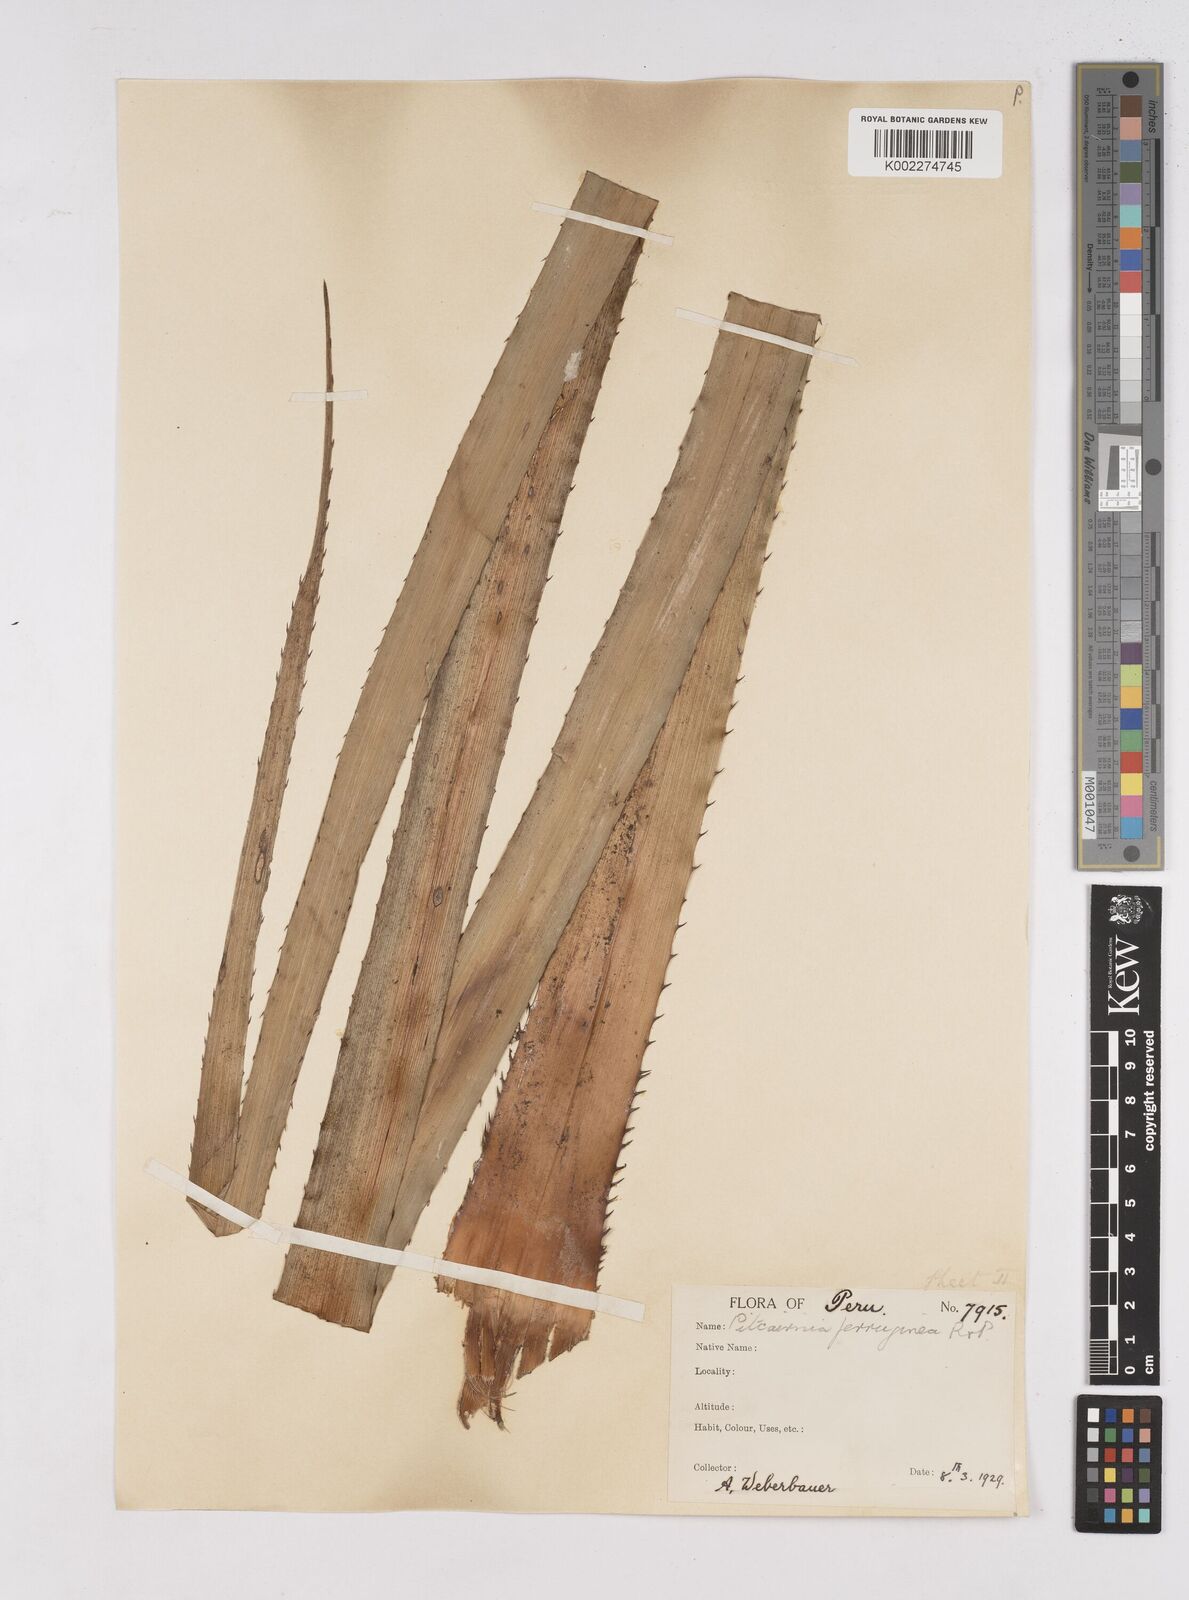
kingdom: Plantae
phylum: Tracheophyta
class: Liliopsida
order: Poales
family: Bromeliaceae
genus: Puya
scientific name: Puya ferruginea
